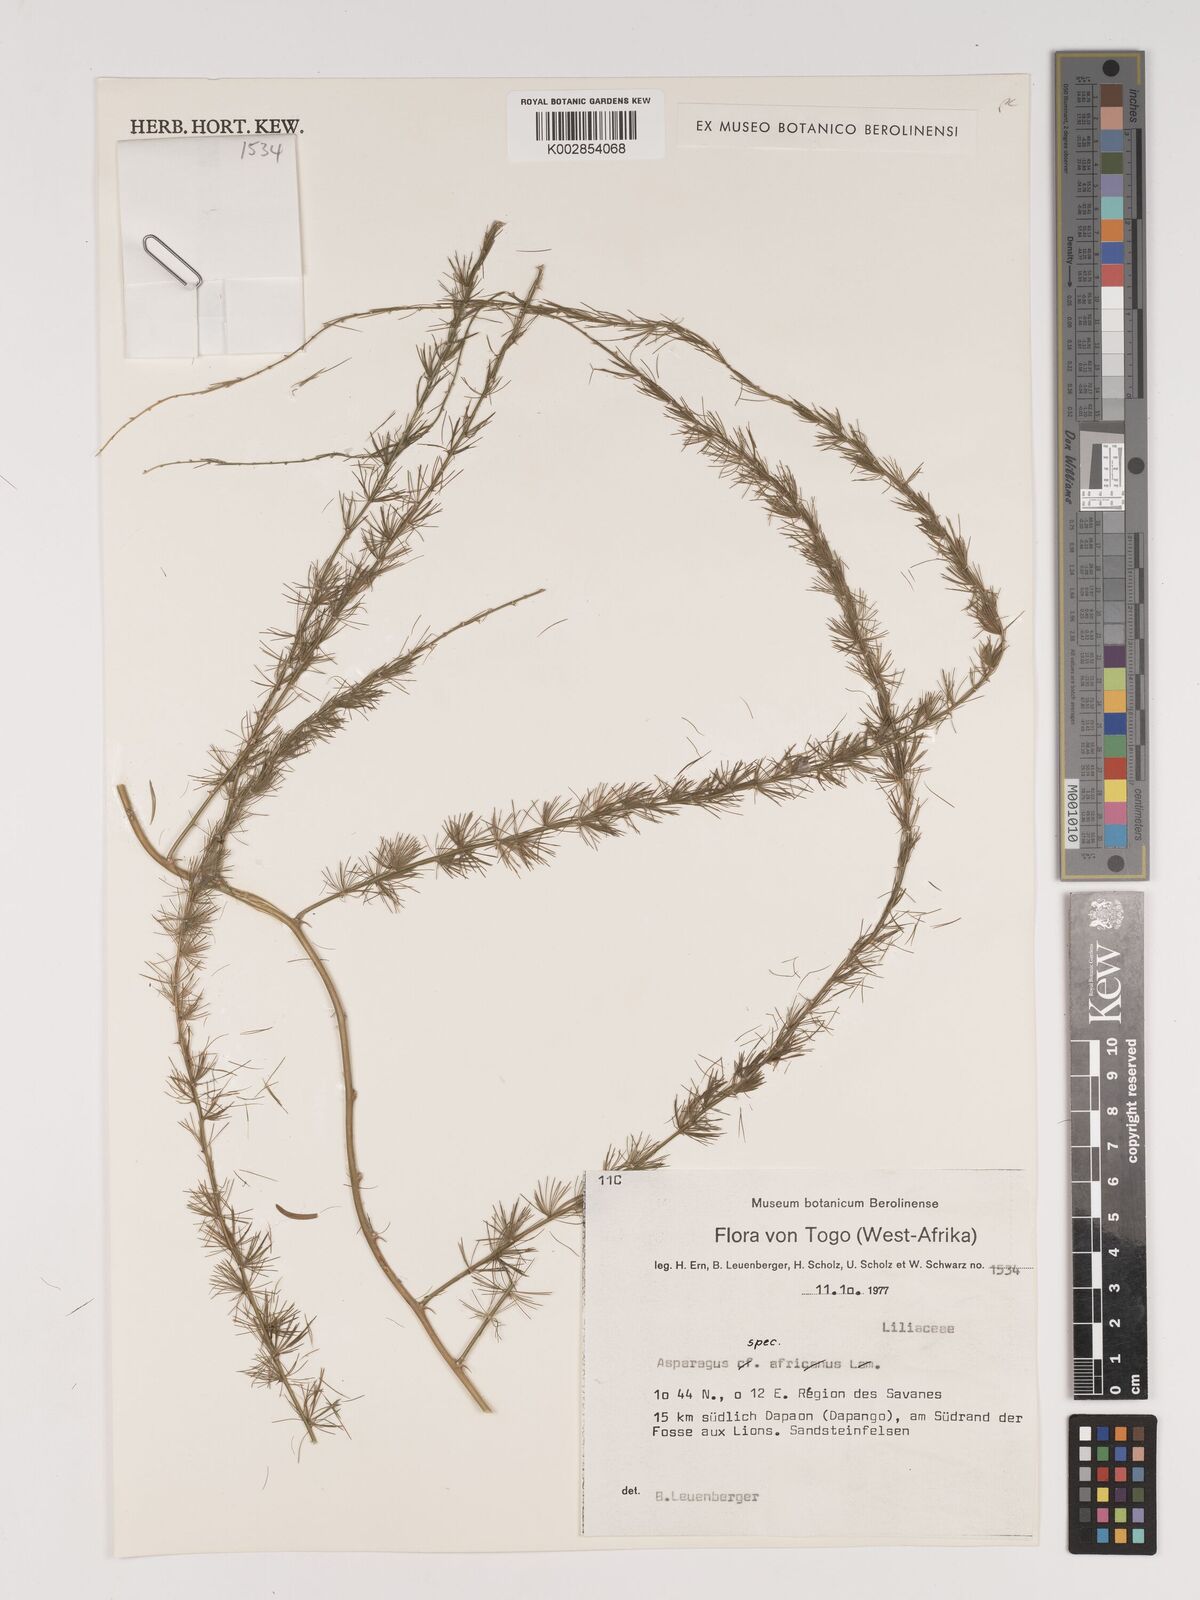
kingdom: Plantae
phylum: Tracheophyta
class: Liliopsida
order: Asparagales
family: Asparagaceae
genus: Asparagus
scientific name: Asparagus
